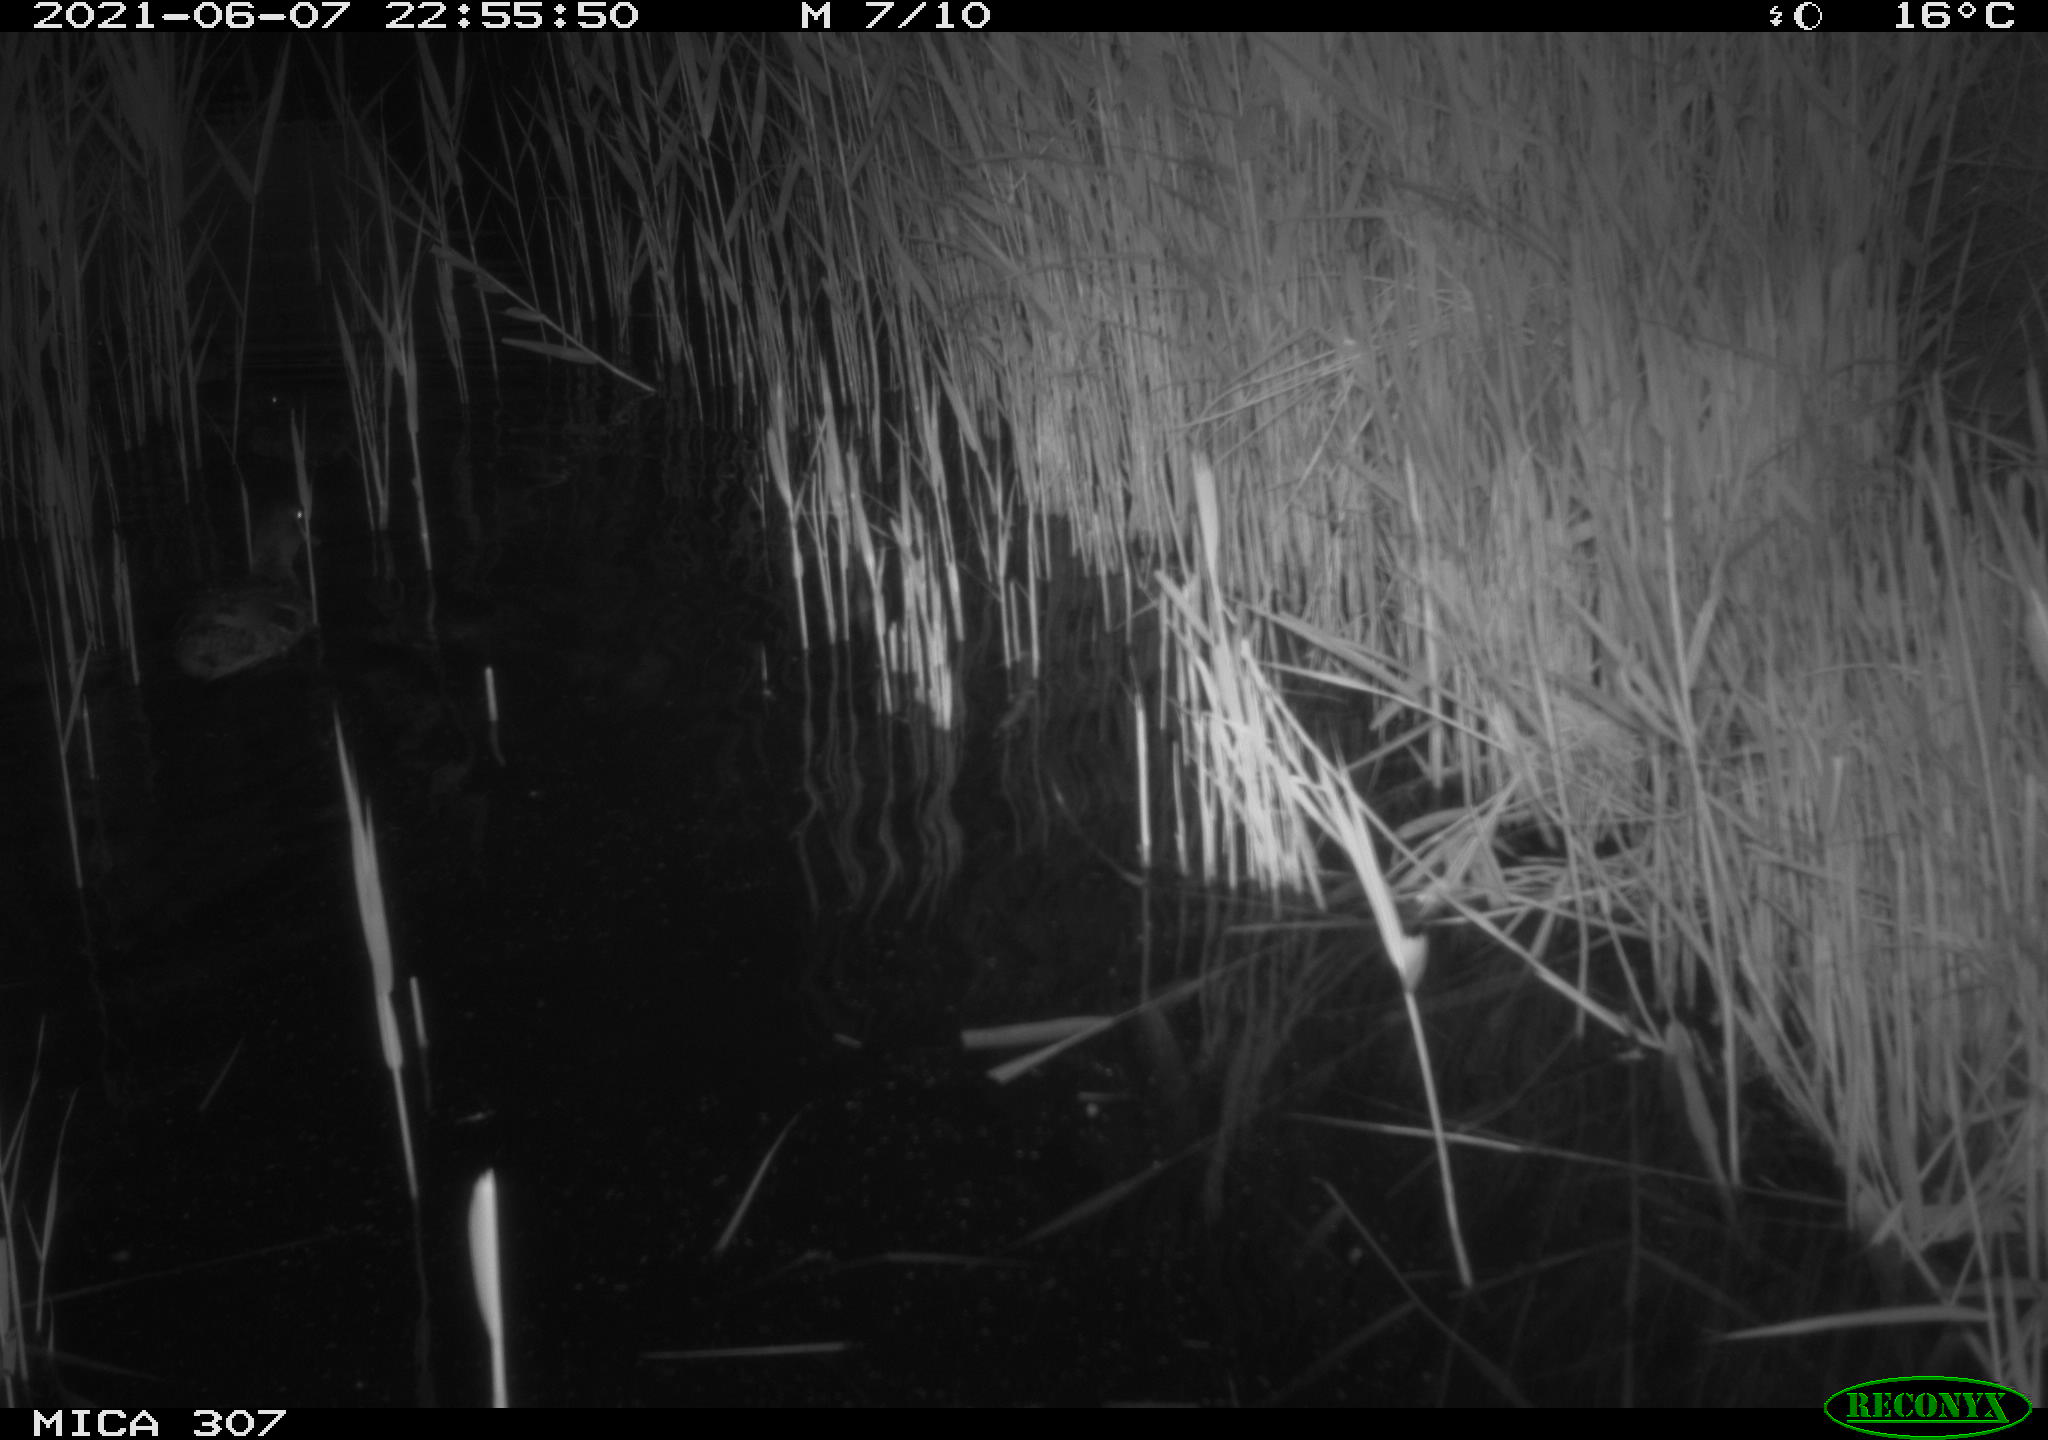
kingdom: Animalia
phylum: Chordata
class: Aves
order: Anseriformes
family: Anatidae
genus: Anas
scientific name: Anas platyrhynchos
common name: Mallard
